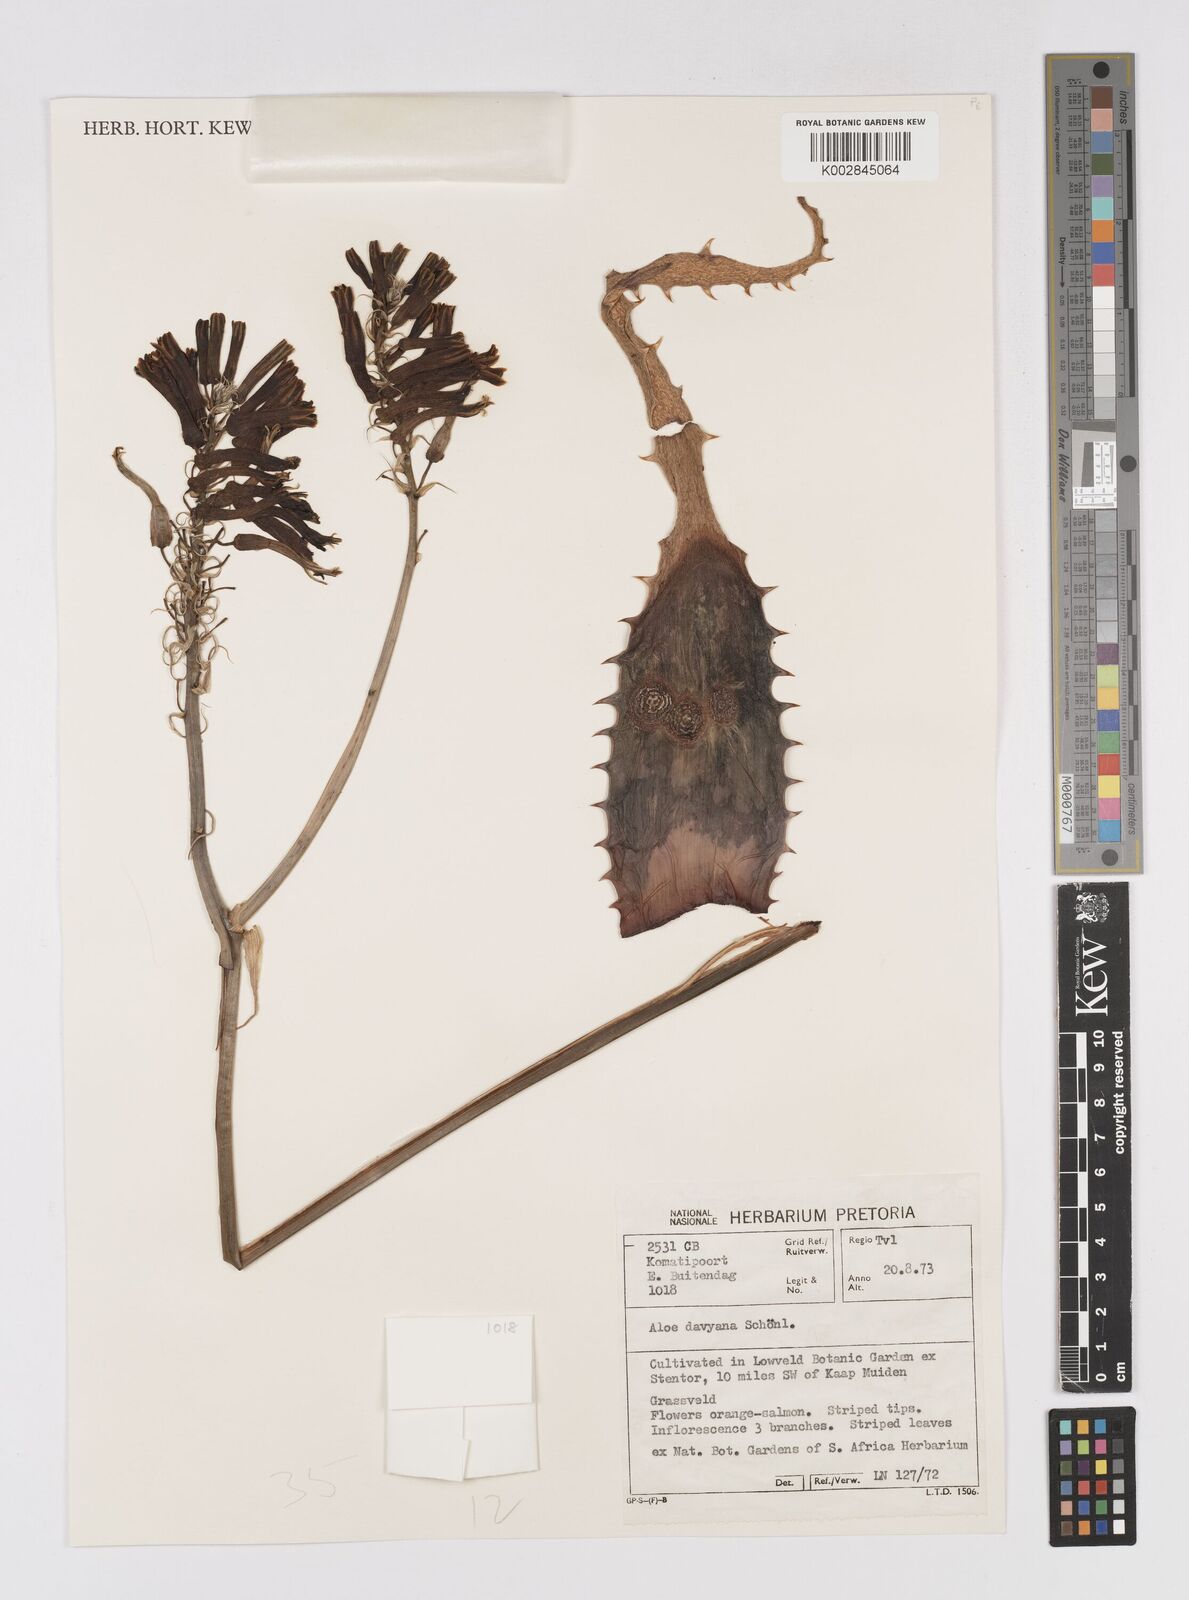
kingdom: Plantae
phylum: Tracheophyta
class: Liliopsida
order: Asparagales
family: Asphodelaceae
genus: Aloe
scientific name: Aloe davyana
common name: Spotted aloe
